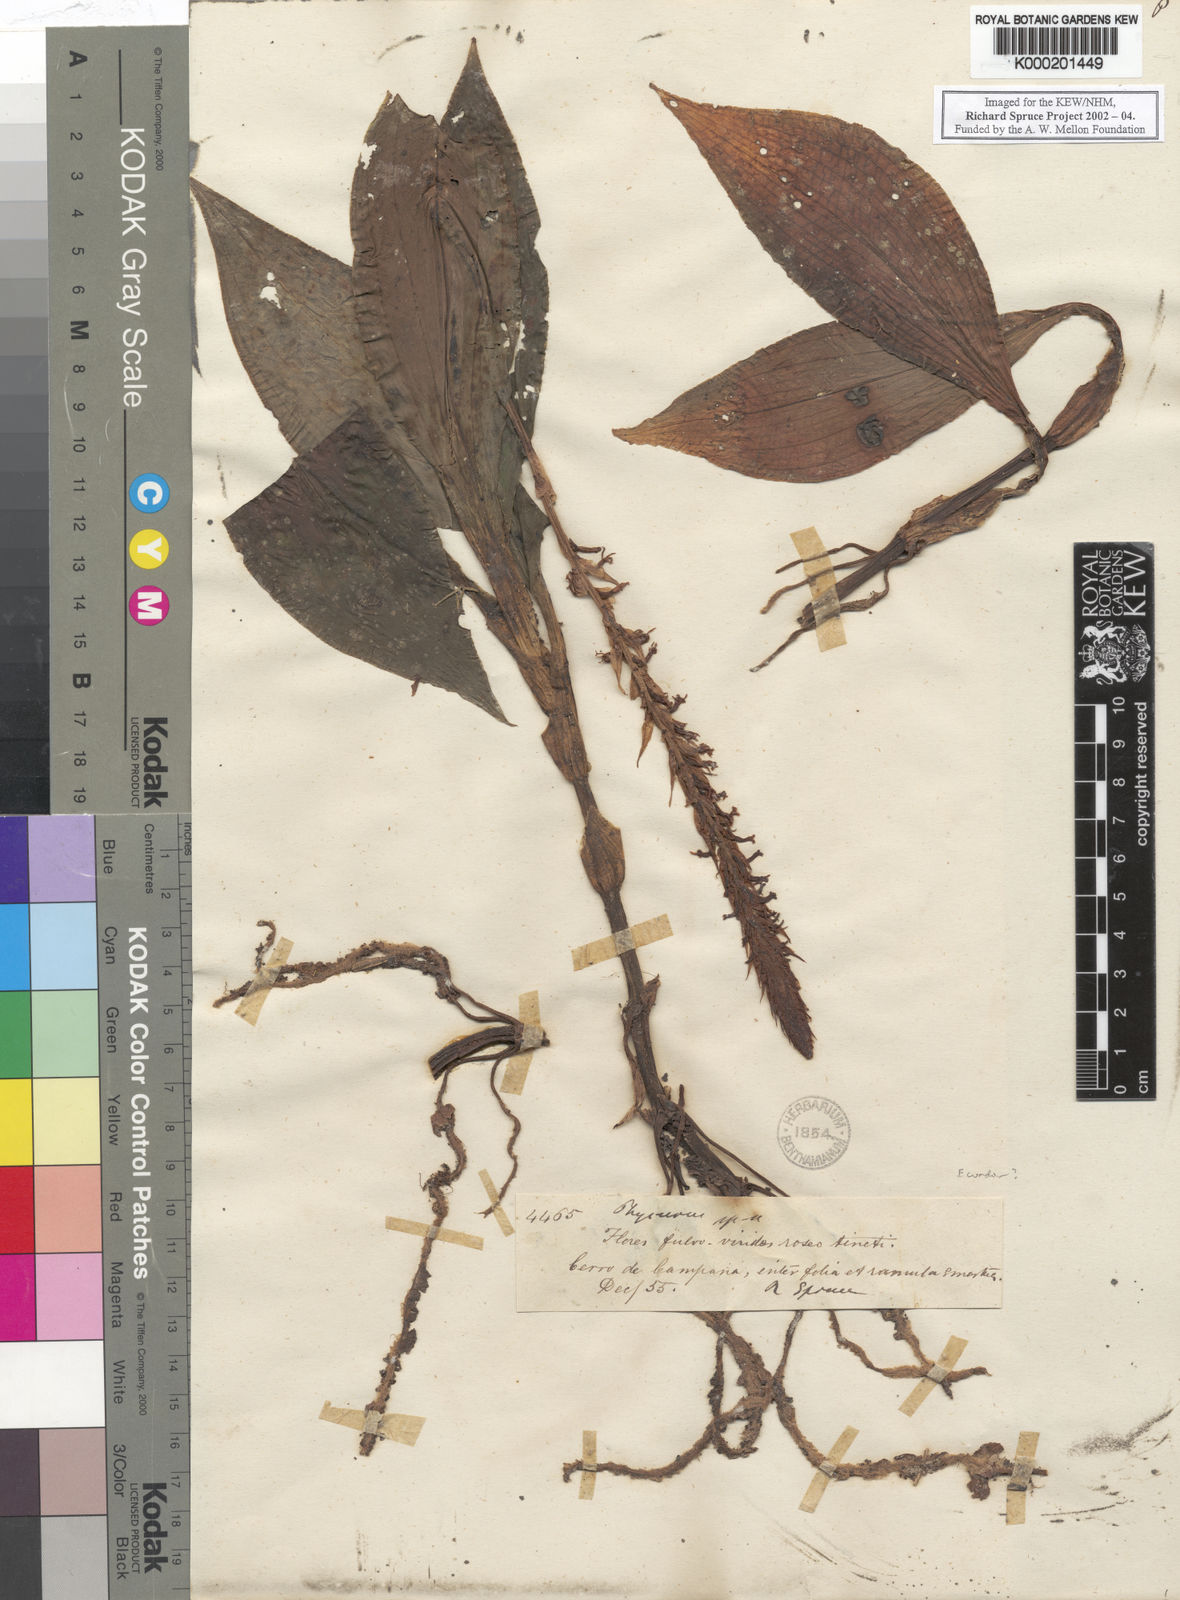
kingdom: Plantae
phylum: Tracheophyta
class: Liliopsida
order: Asparagales
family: Orchidaceae
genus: Microchilus
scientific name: Microchilus campanensis
